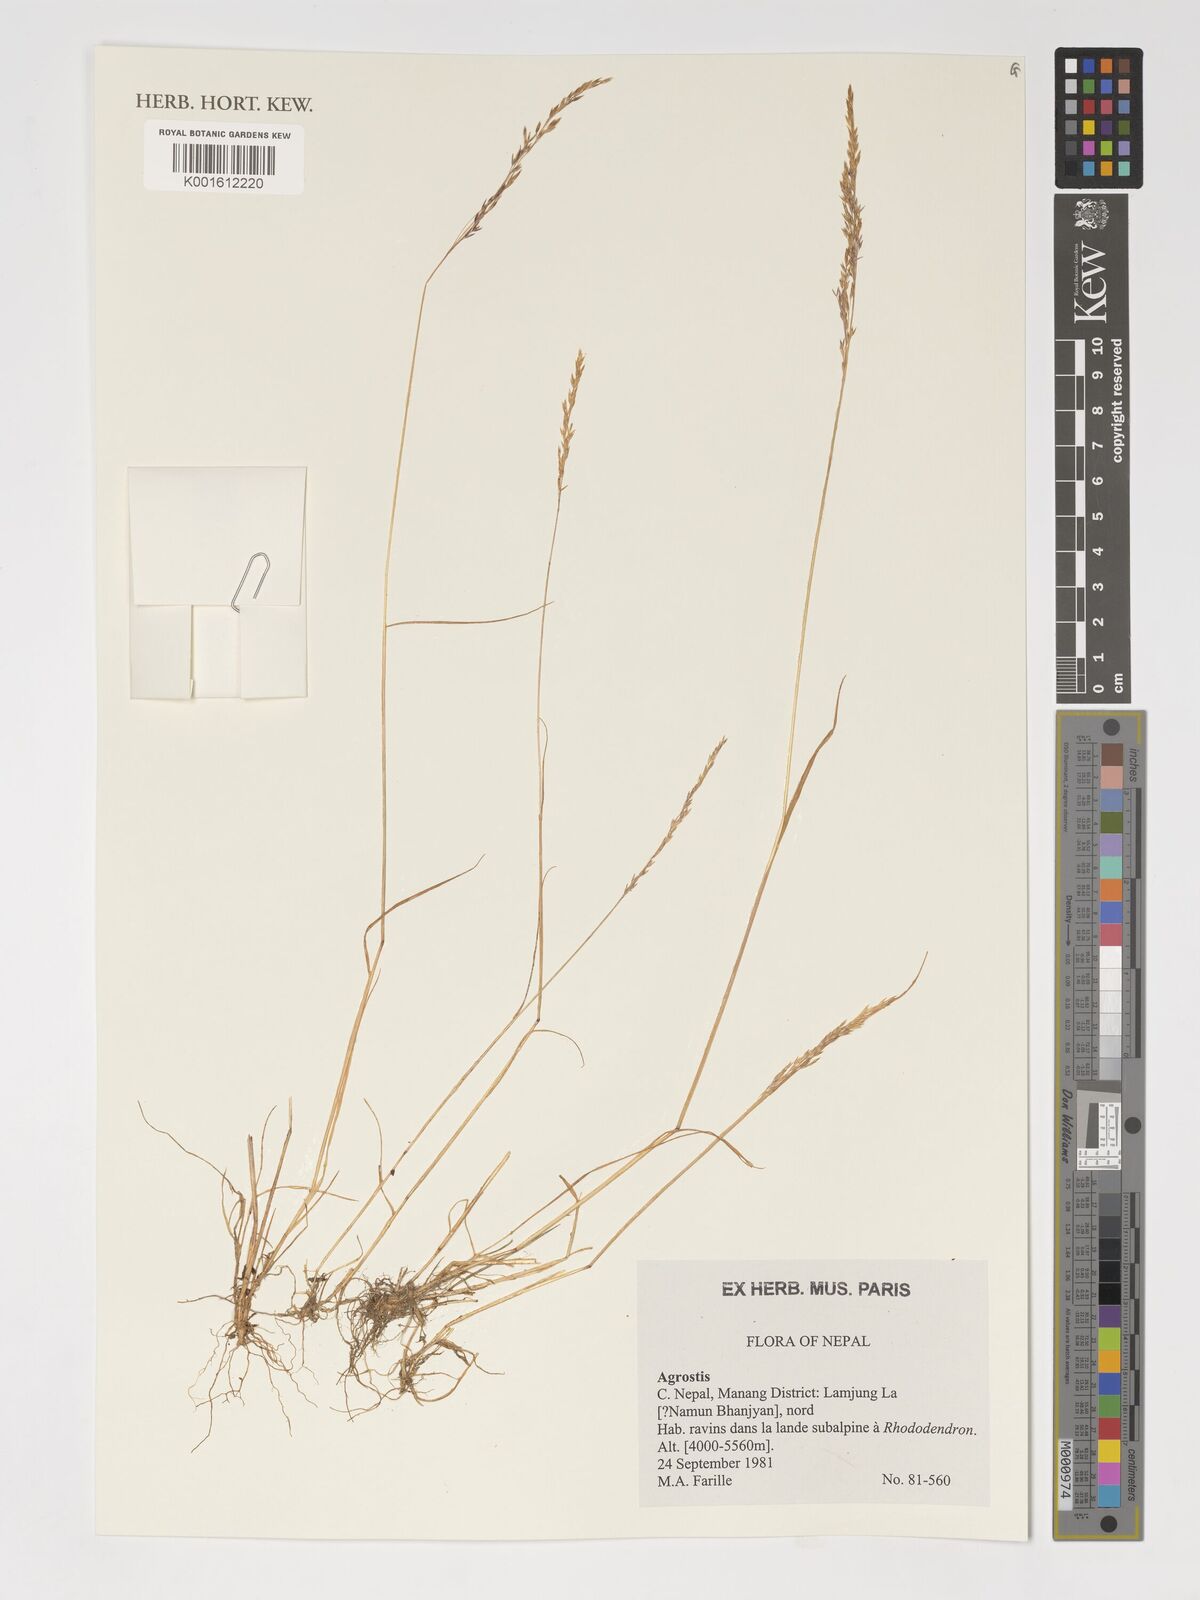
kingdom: Plantae
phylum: Tracheophyta
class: Liliopsida
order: Poales
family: Poaceae
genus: Agrostis
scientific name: Agrostis
